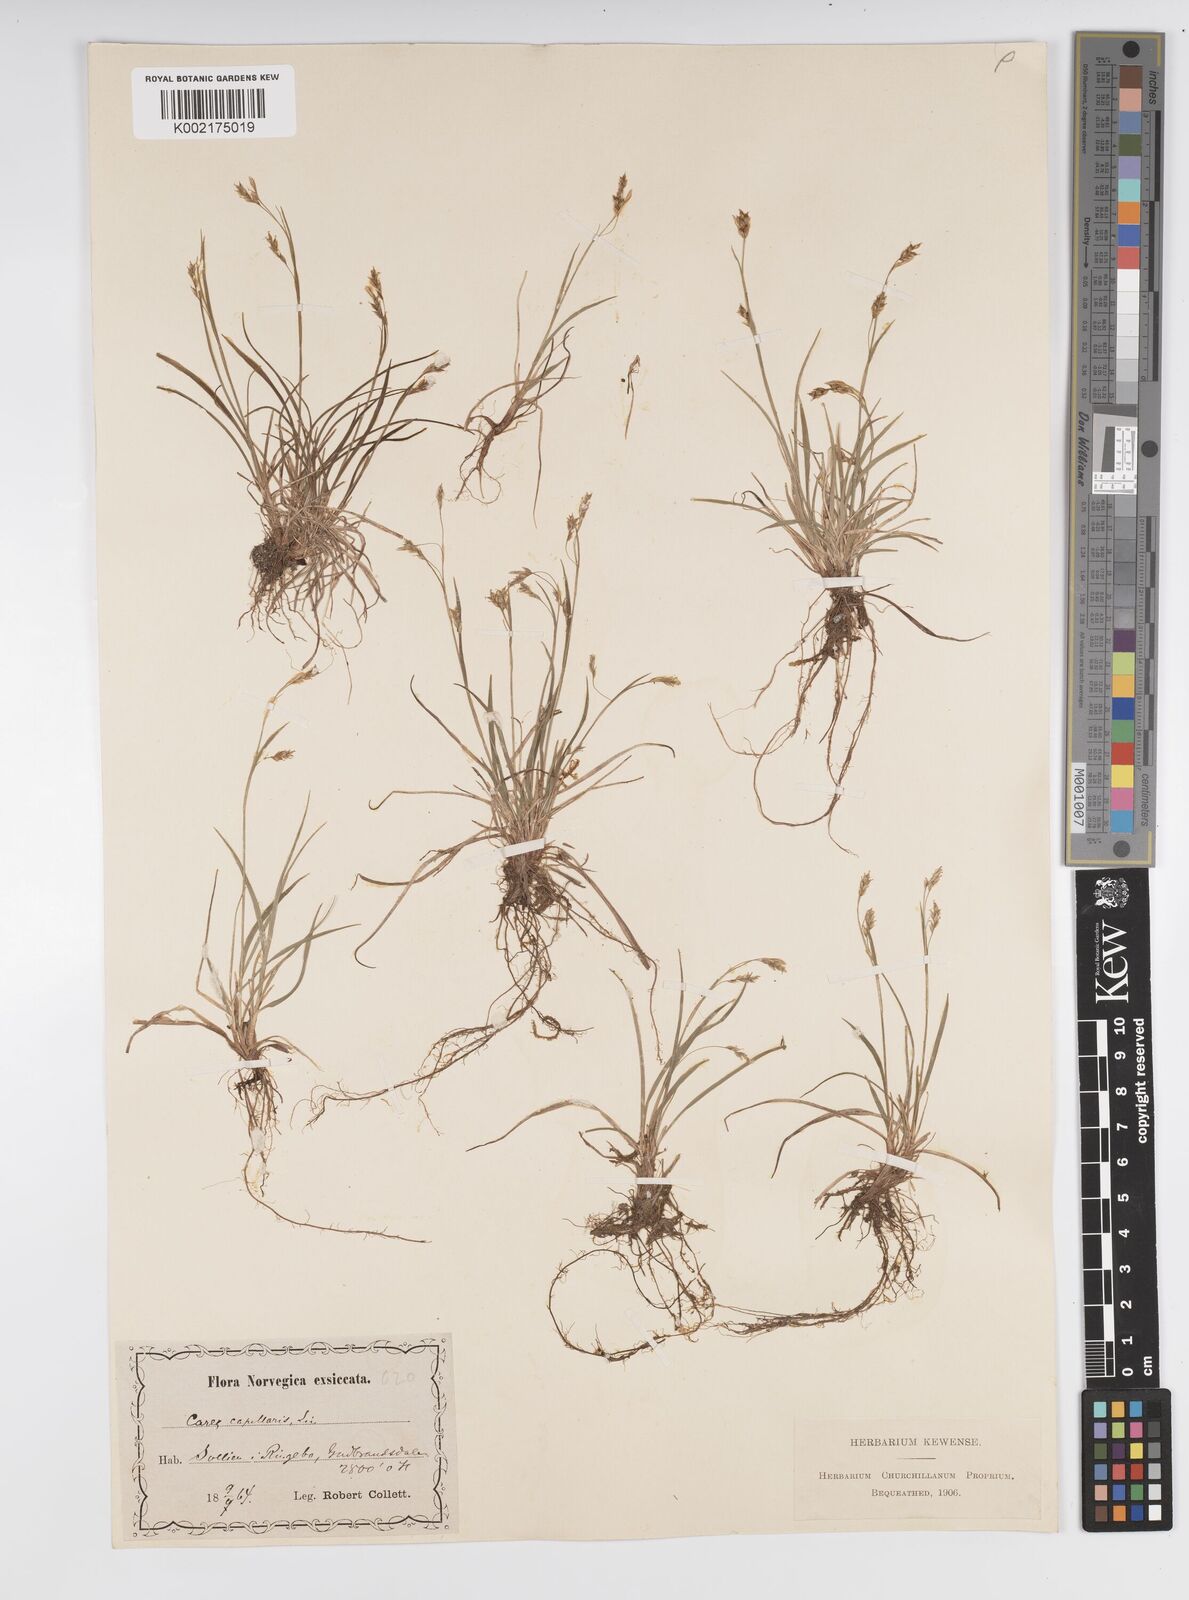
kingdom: Plantae
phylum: Tracheophyta
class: Liliopsida
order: Poales
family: Cyperaceae
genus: Carex
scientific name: Carex capillaris
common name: Hair sedge
